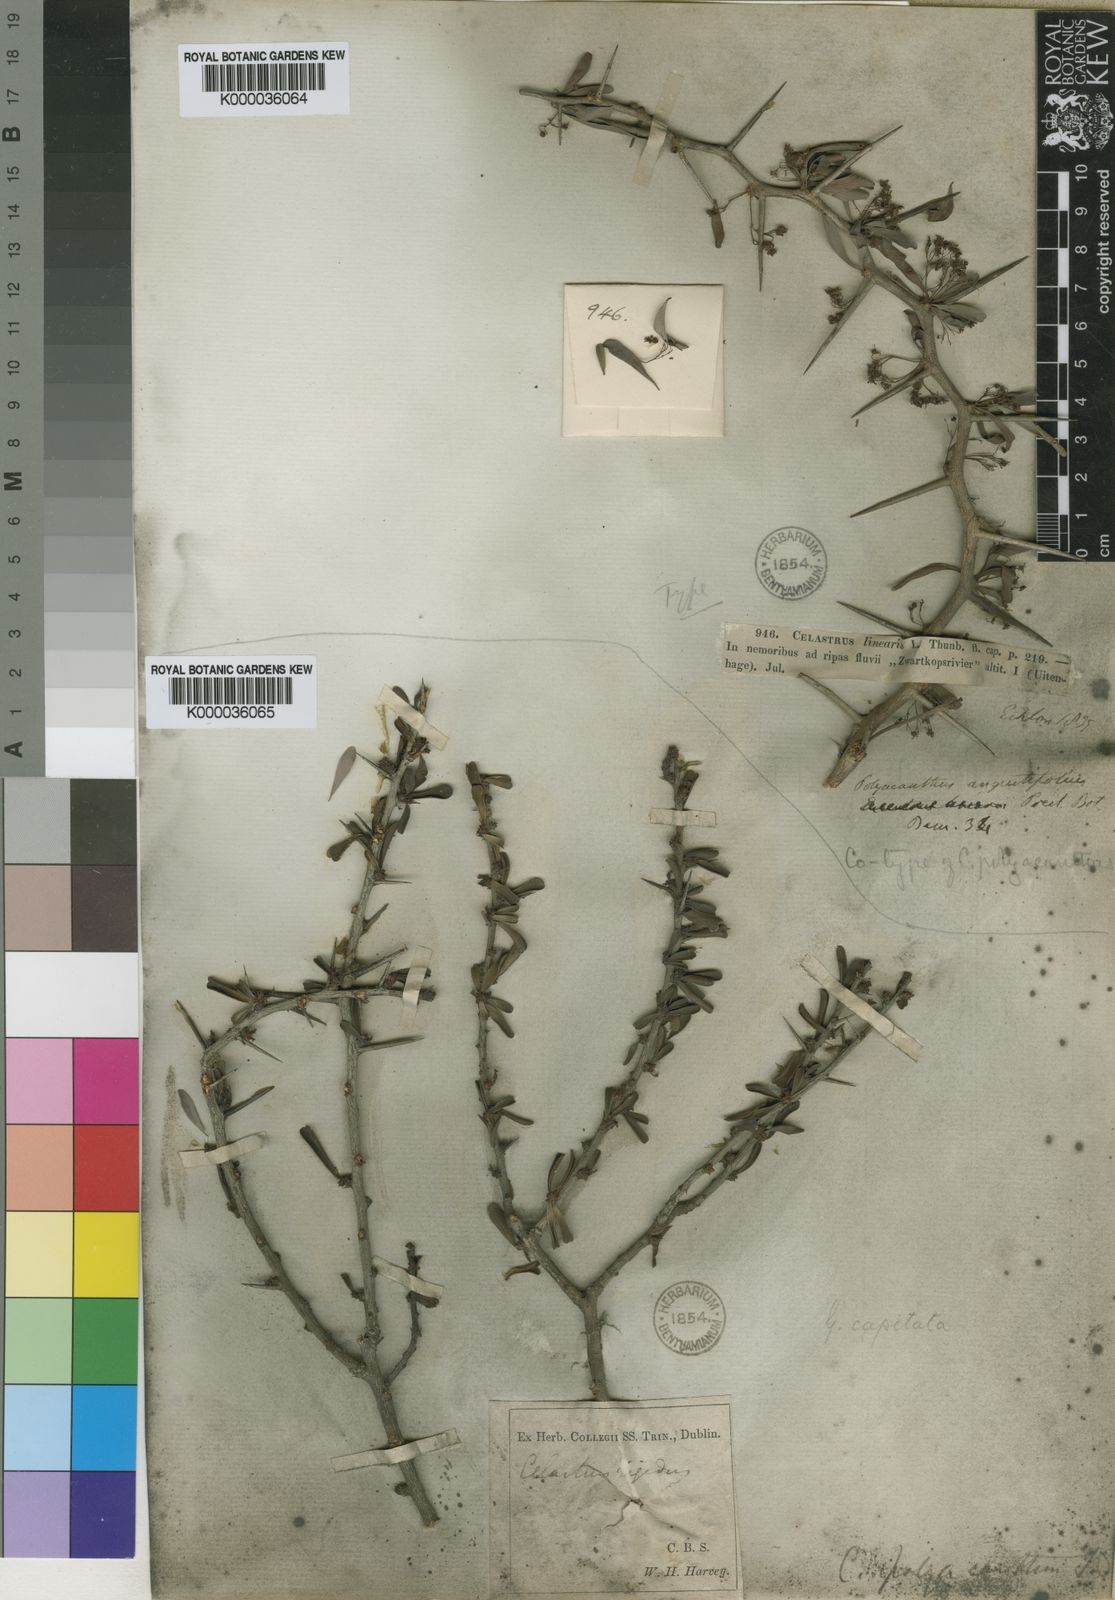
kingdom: Plantae
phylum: Tracheophyta
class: Magnoliopsida
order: Celastrales
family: Celastraceae
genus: Gymnosporia
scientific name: Gymnosporia polyacantha
